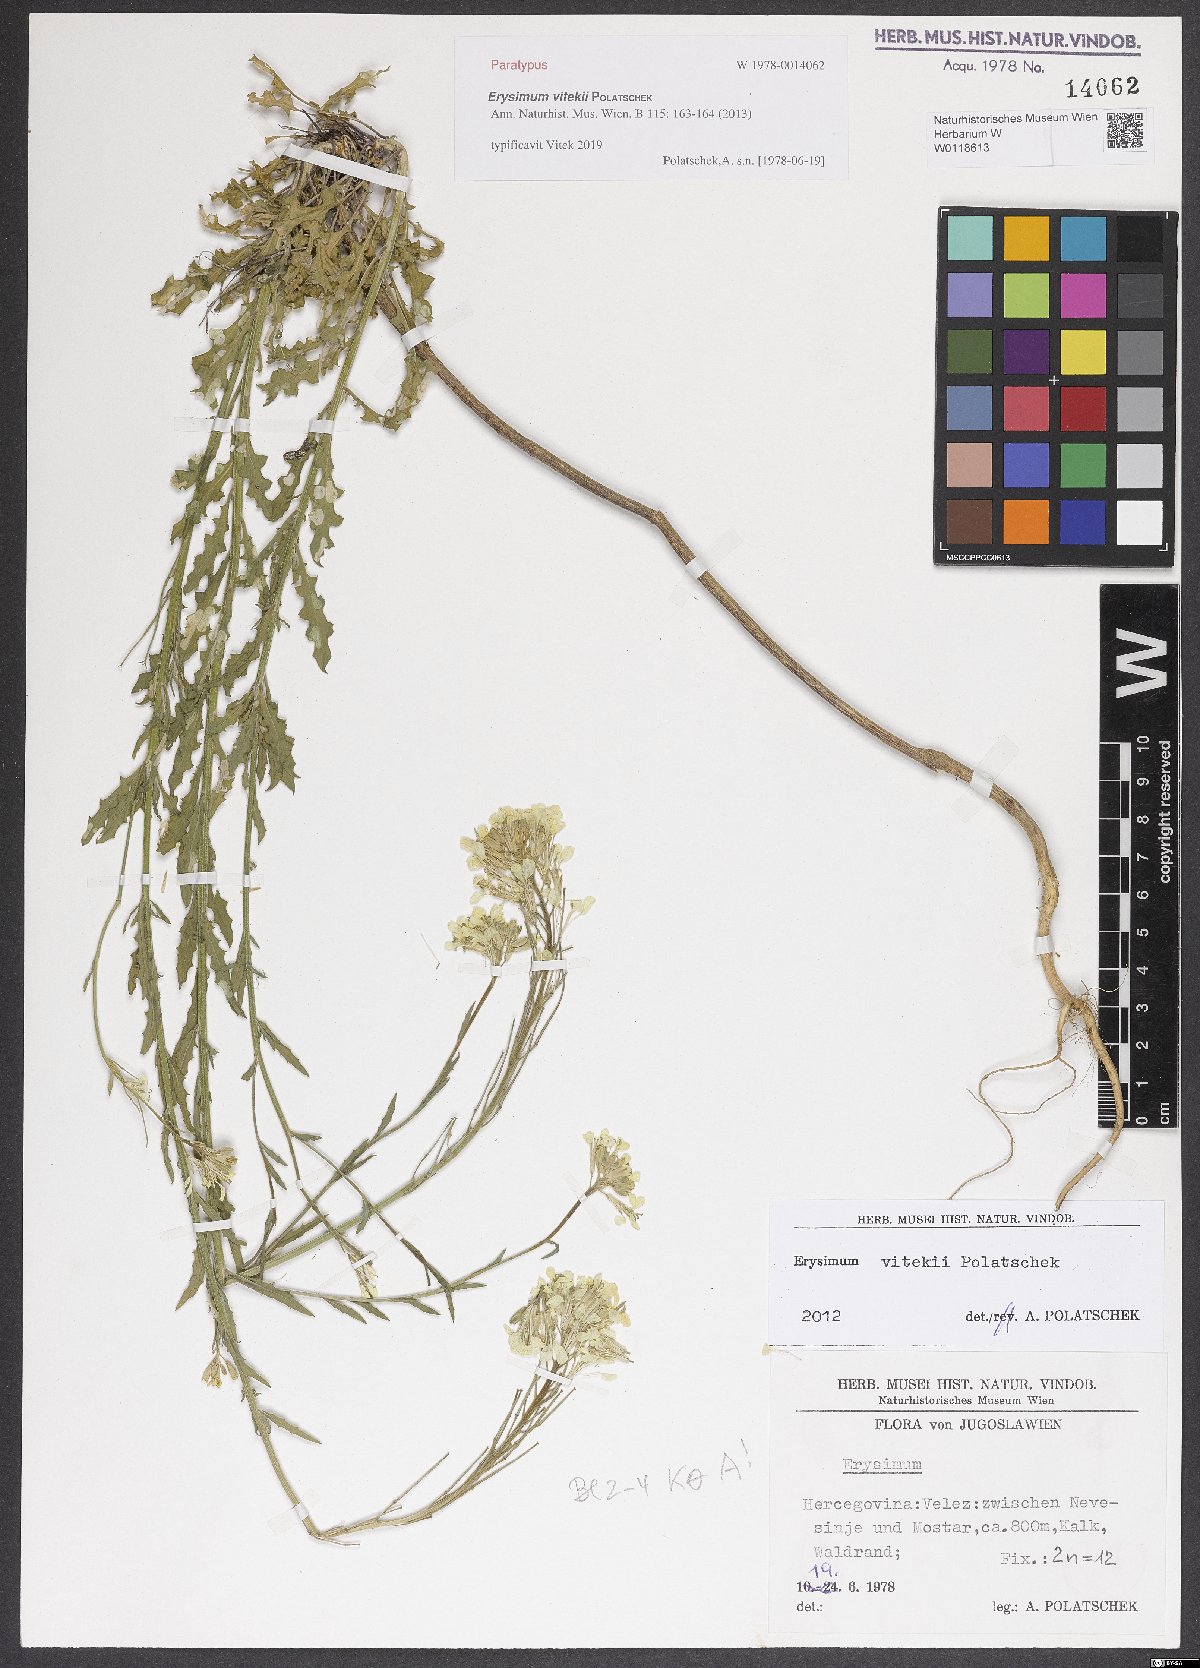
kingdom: Plantae
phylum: Tracheophyta
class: Magnoliopsida
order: Brassicales
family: Brassicaceae
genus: Erysimum
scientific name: Erysimum vitekii
